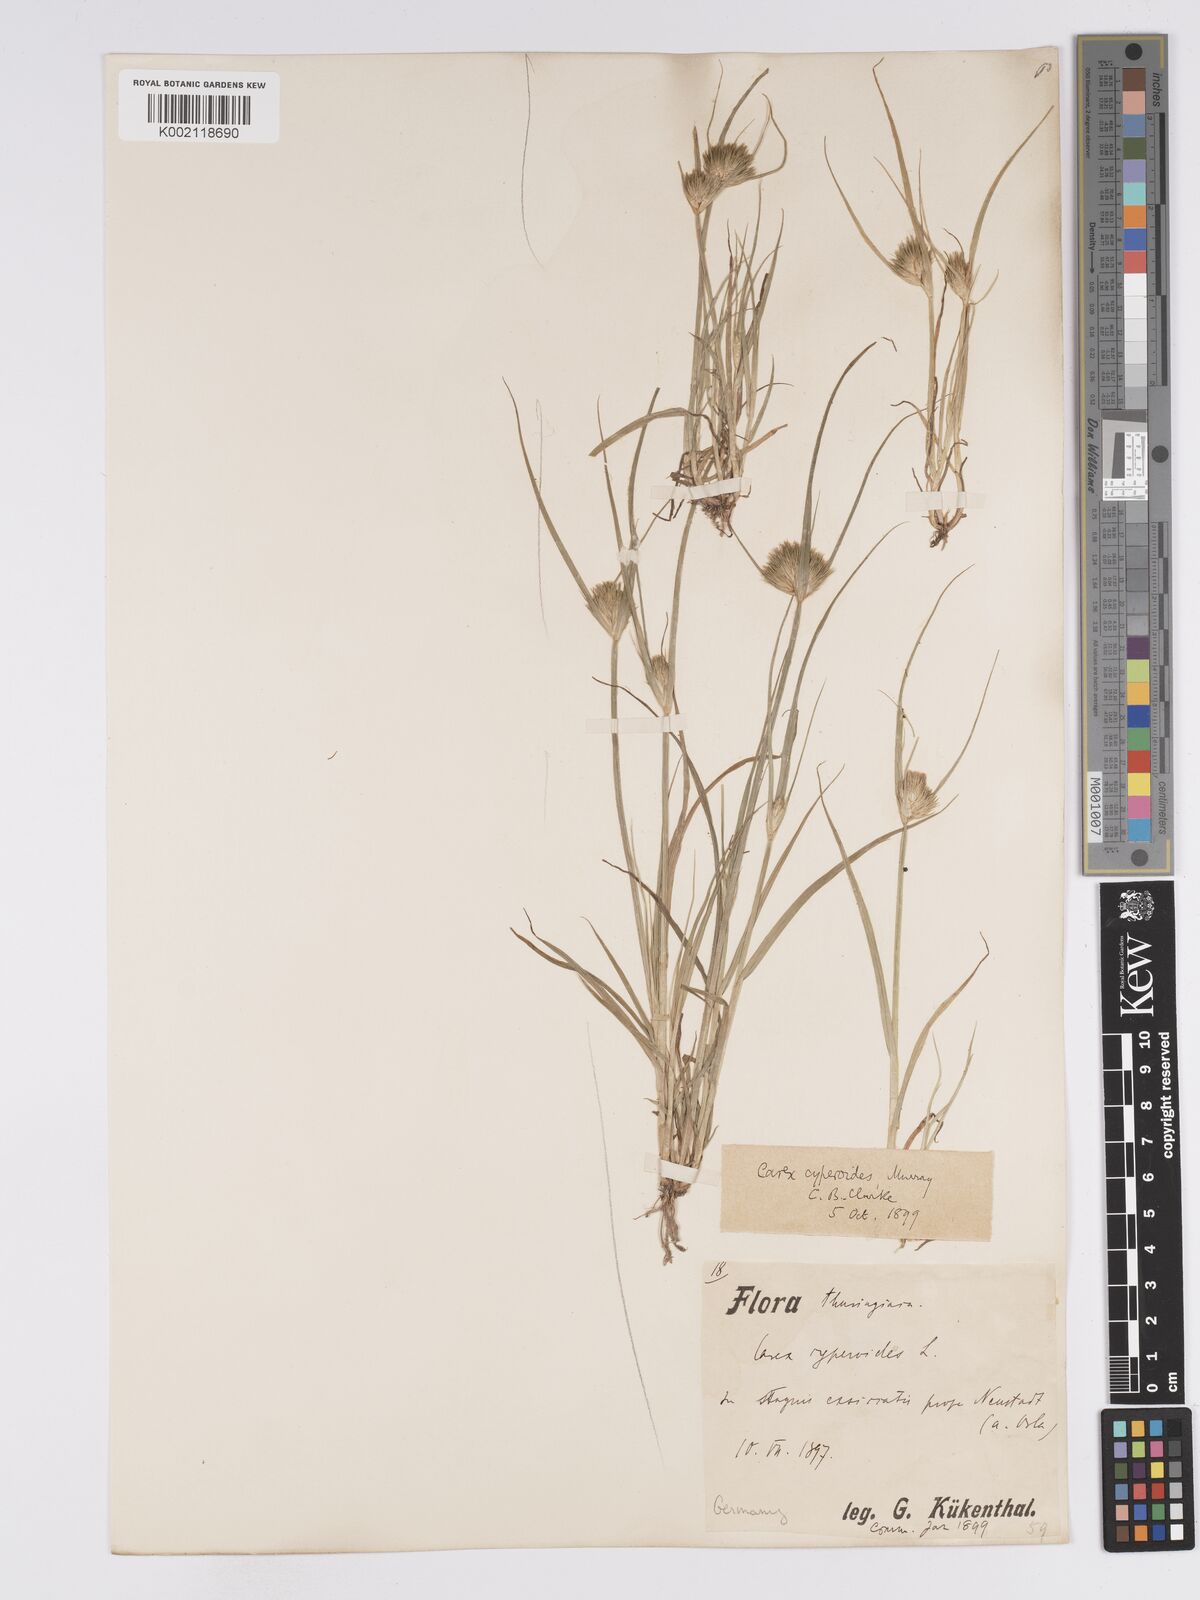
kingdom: Plantae
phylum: Tracheophyta
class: Liliopsida
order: Poales
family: Cyperaceae
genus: Carex
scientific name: Carex bohemica
